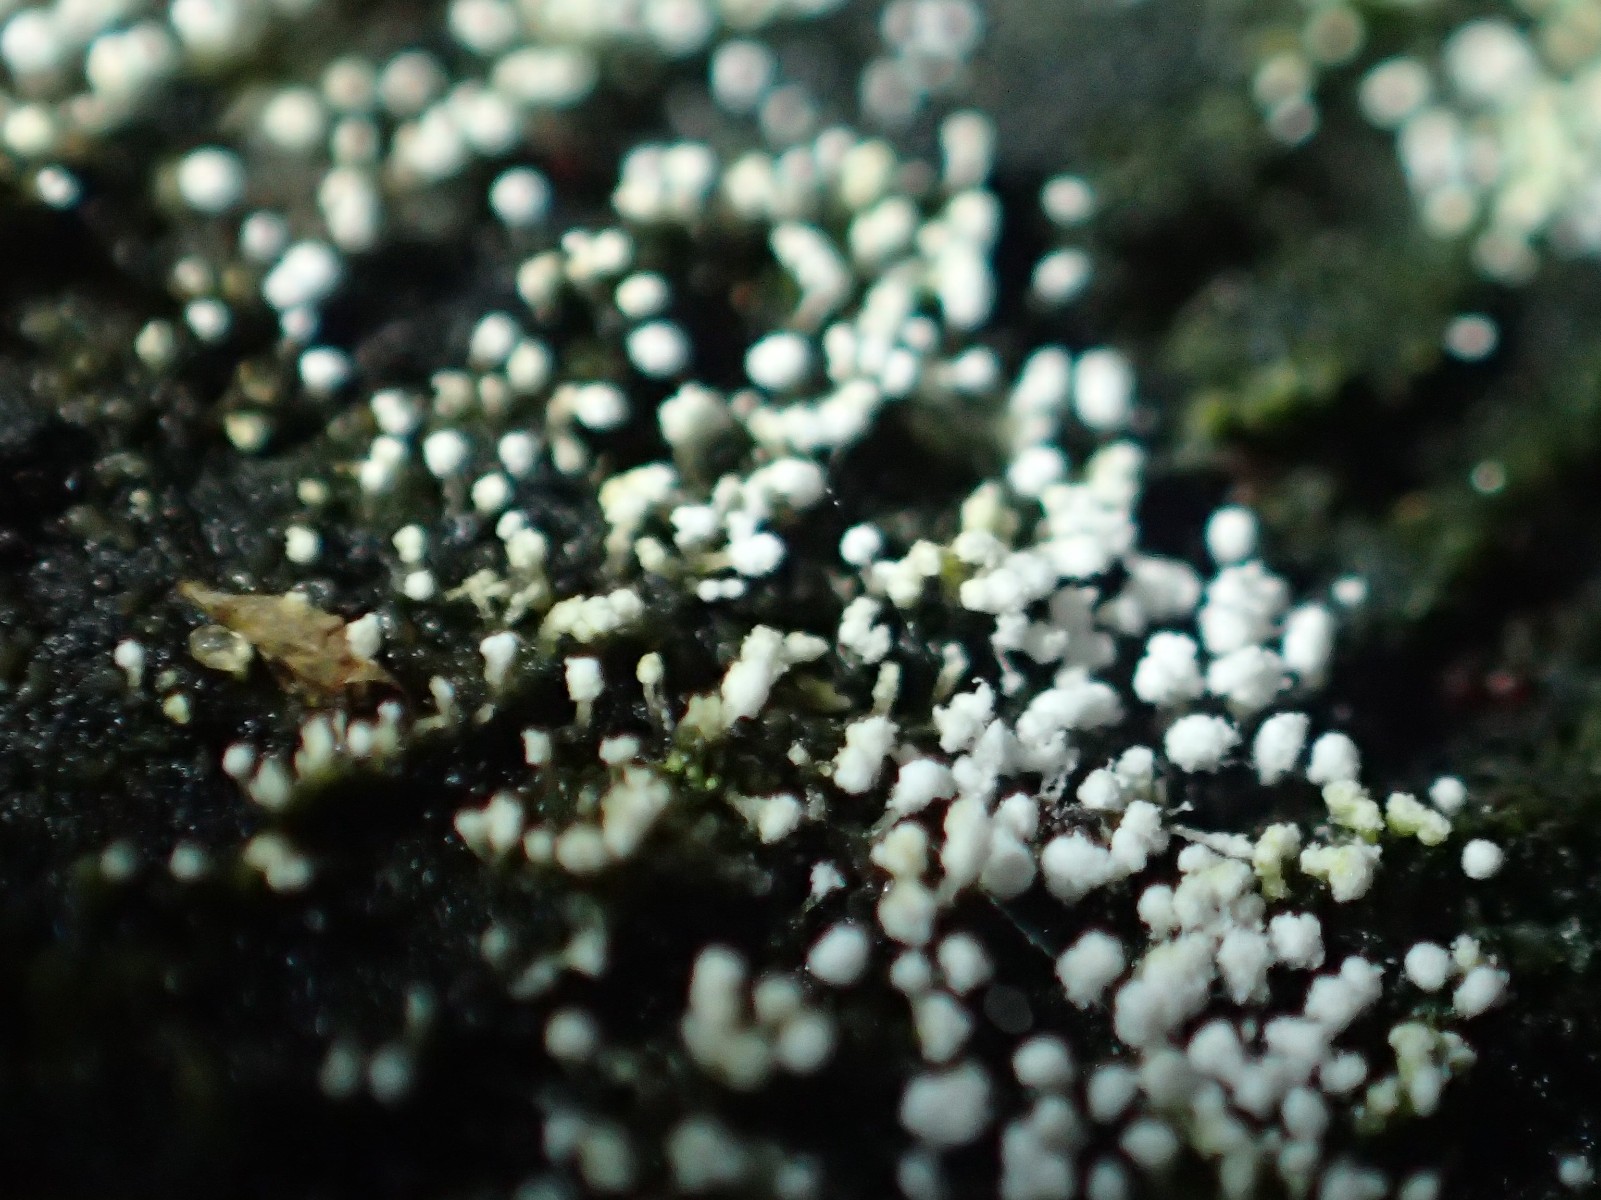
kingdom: Fungi
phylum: Ascomycota
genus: Sphaeridium
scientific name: Sphaeridium candidulum
